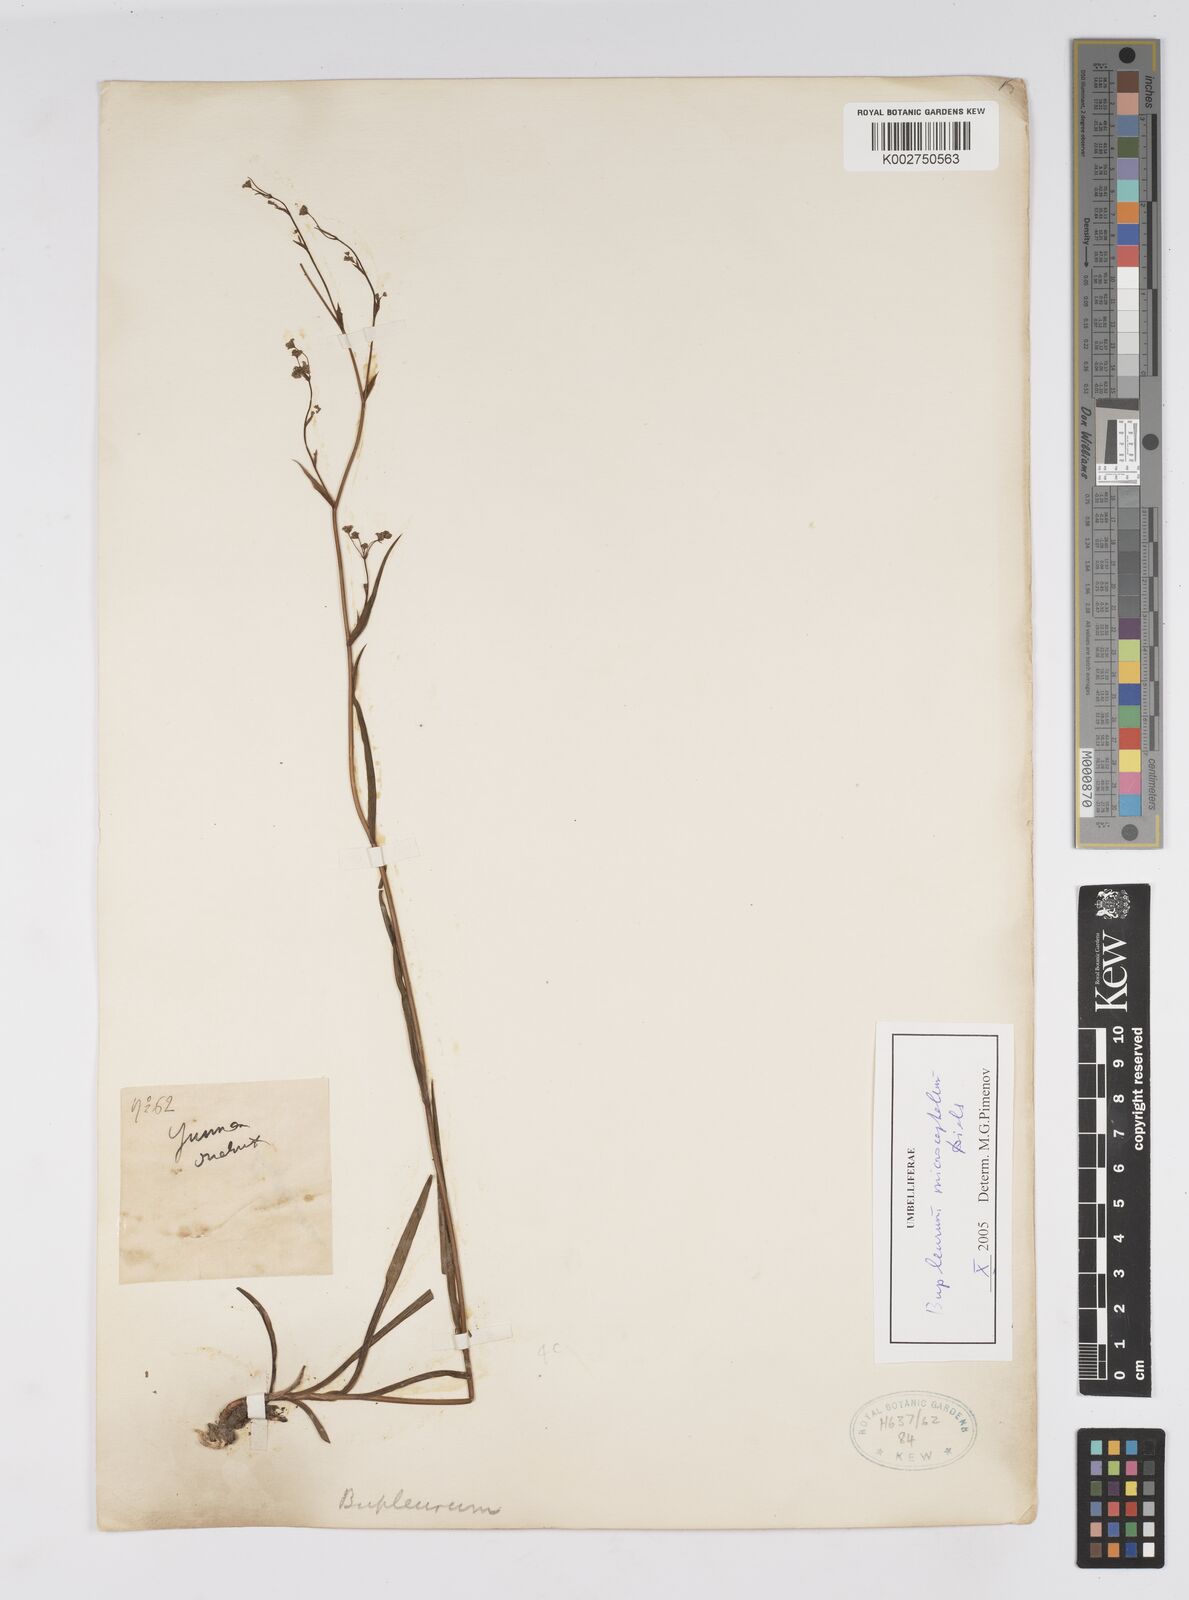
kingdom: Plantae
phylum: Tracheophyta
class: Magnoliopsida
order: Apiales
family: Apiaceae
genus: Bupleurum
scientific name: Bupleurum
